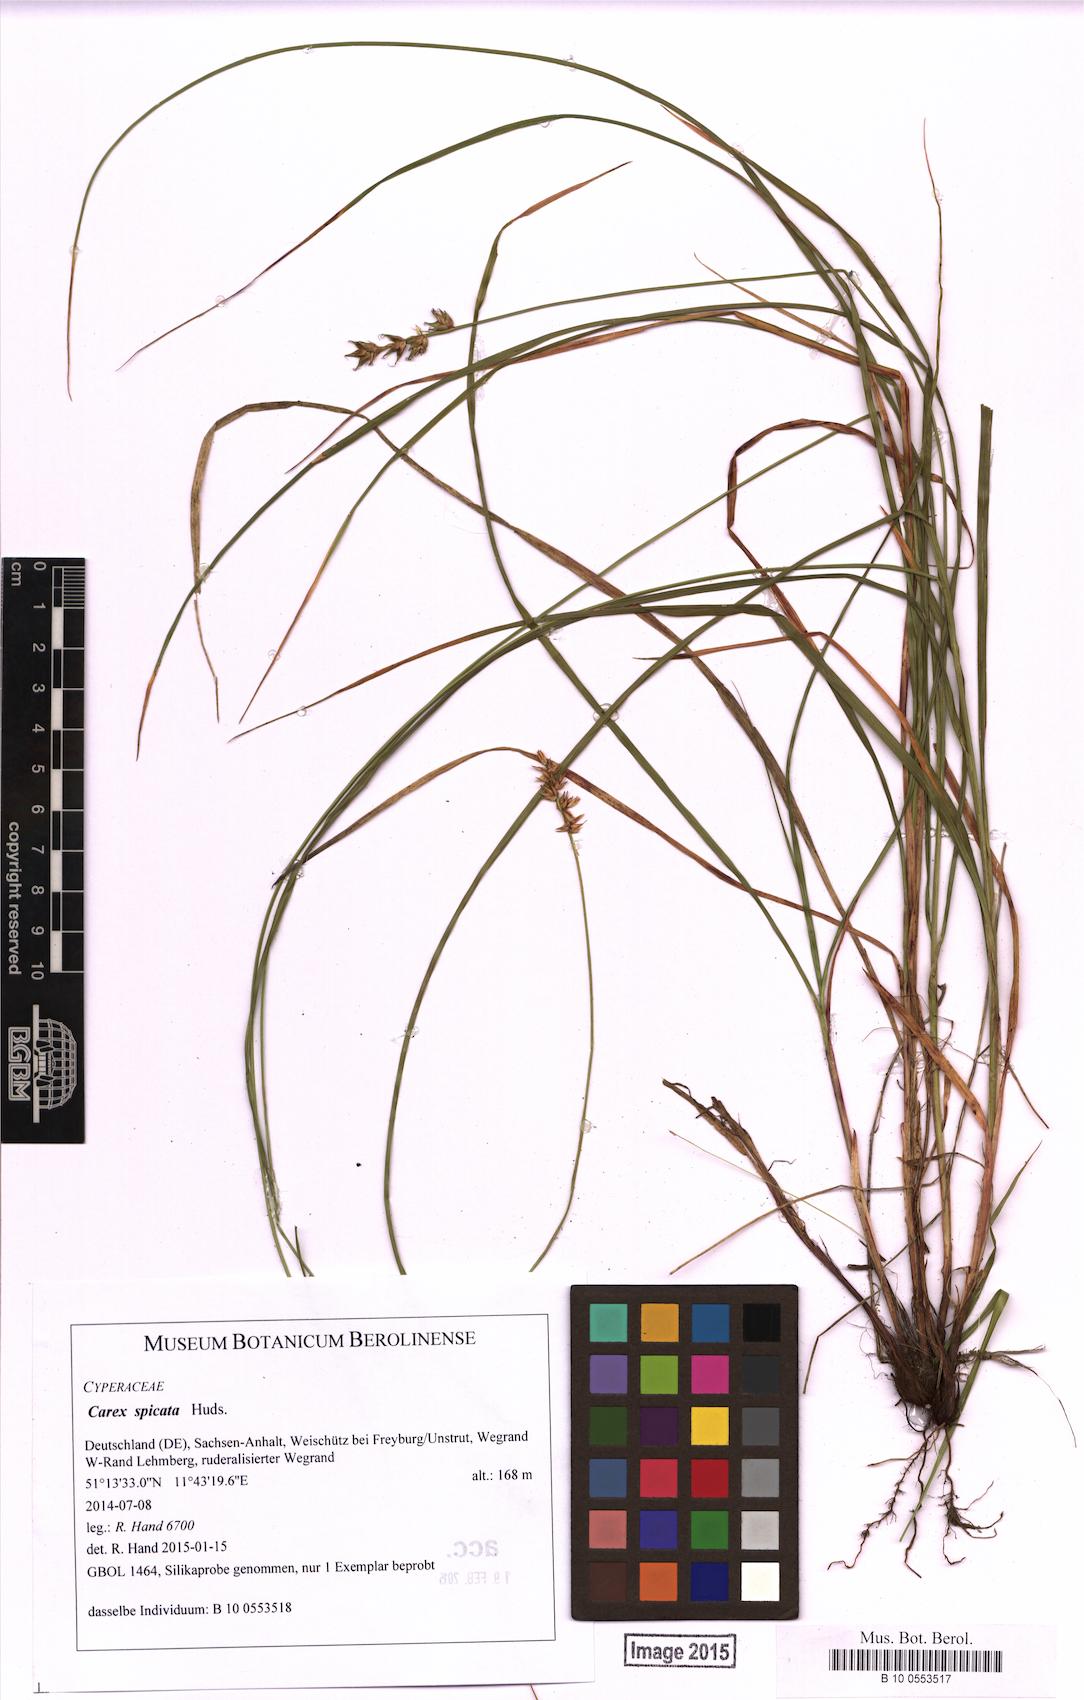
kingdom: Plantae
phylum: Tracheophyta
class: Liliopsida
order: Poales
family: Cyperaceae
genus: Carex
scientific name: Carex spicata
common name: Spiked sedge
